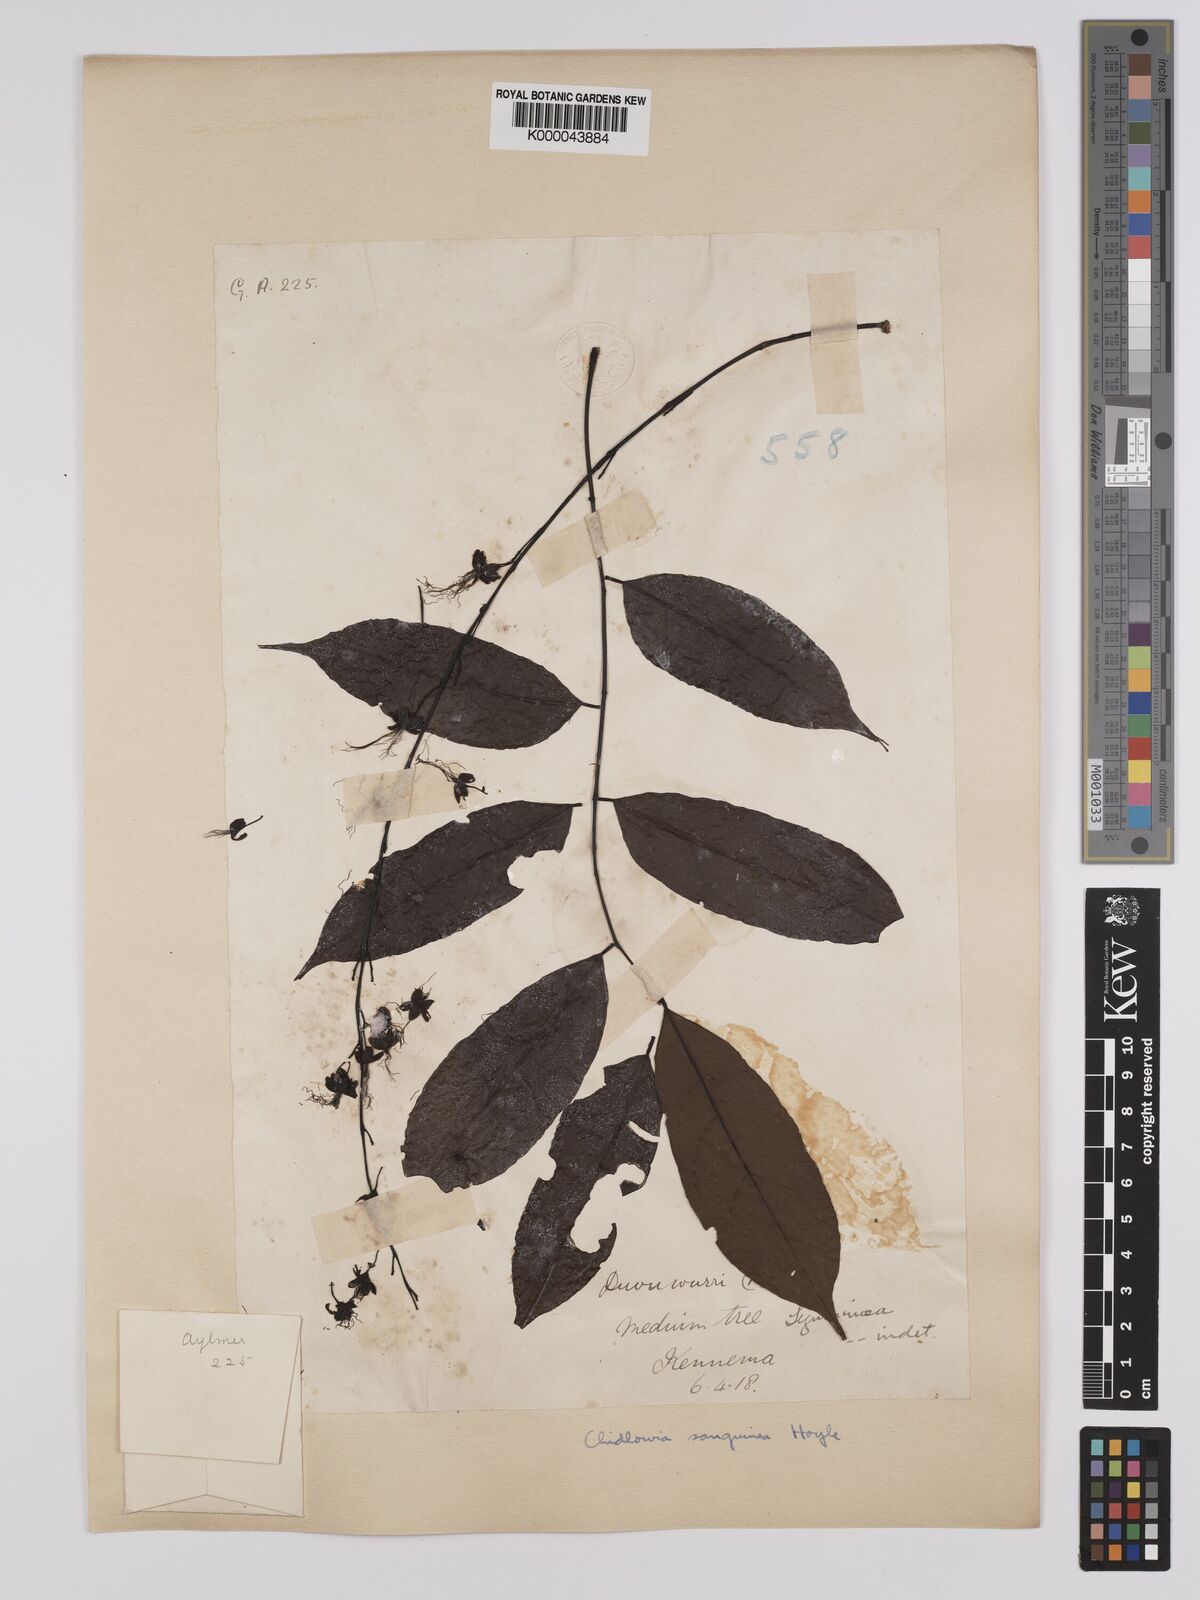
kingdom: Plantae
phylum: Tracheophyta
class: Magnoliopsida
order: Fabales
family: Fabaceae
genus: Chidlowia
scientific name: Chidlowia sanguinea
